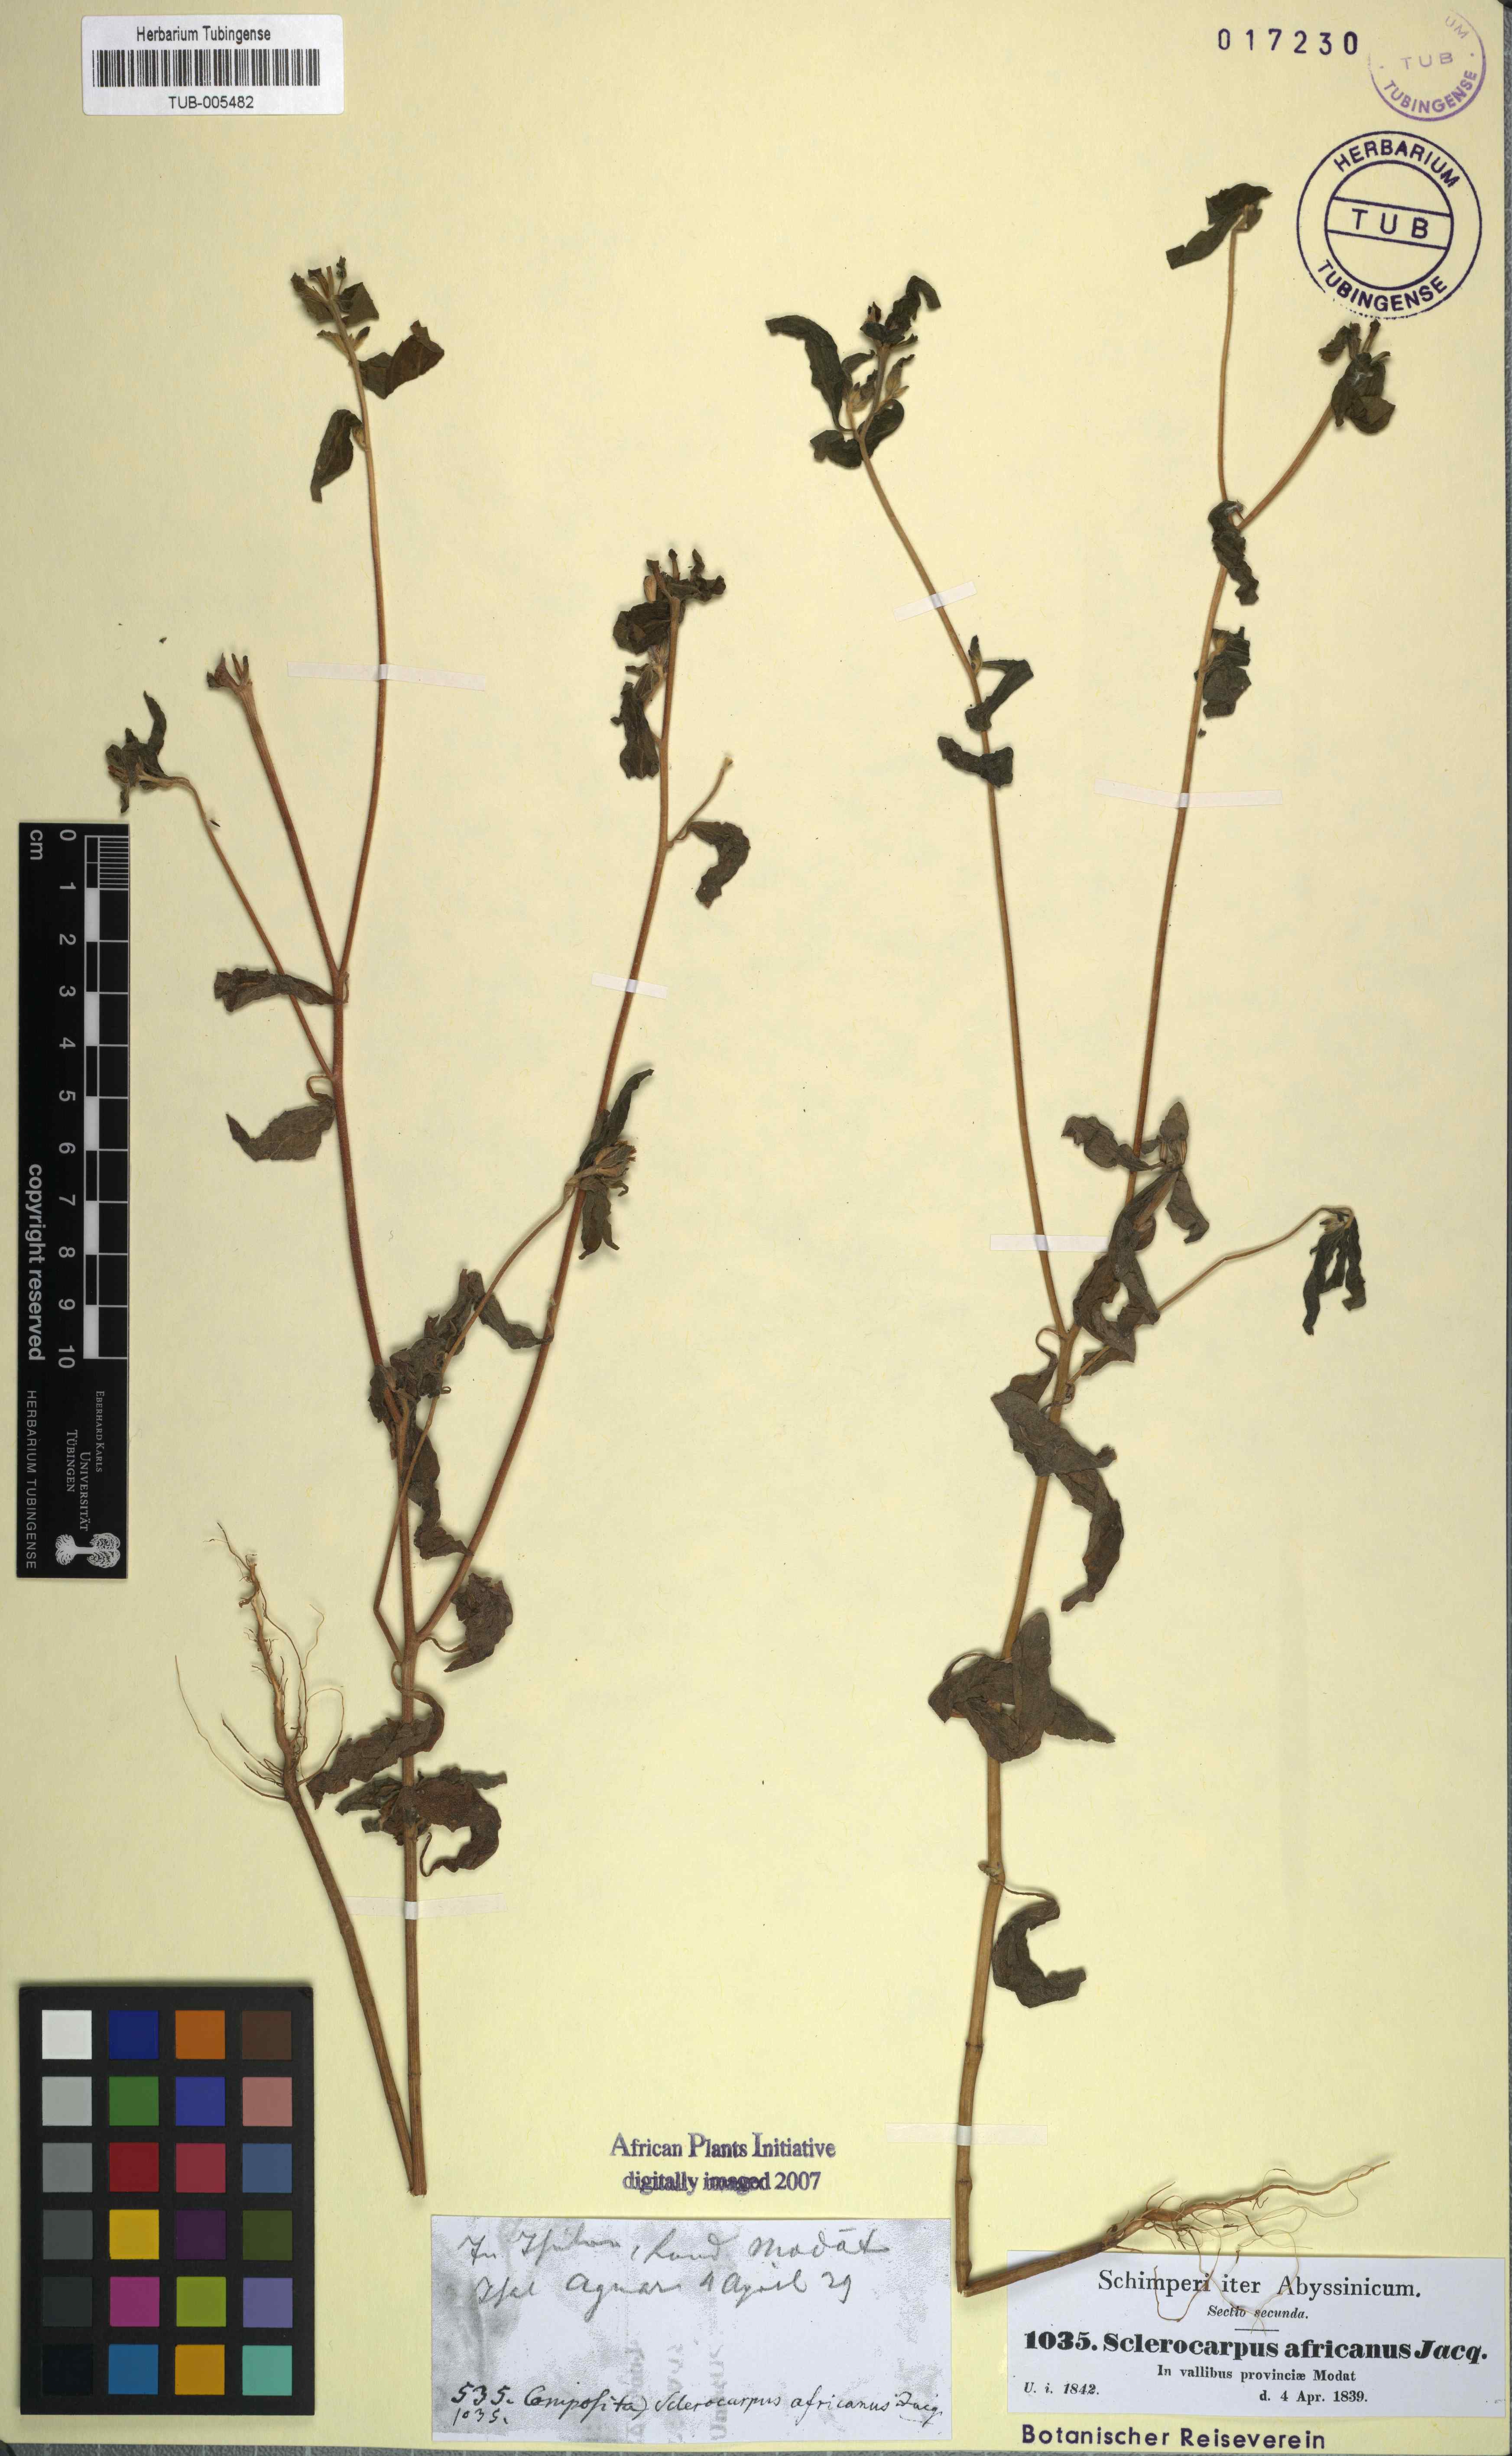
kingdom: Plantae
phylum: Tracheophyta
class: Magnoliopsida
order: Asterales
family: Asteraceae
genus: Sclerocarpus
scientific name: Sclerocarpus africanus
